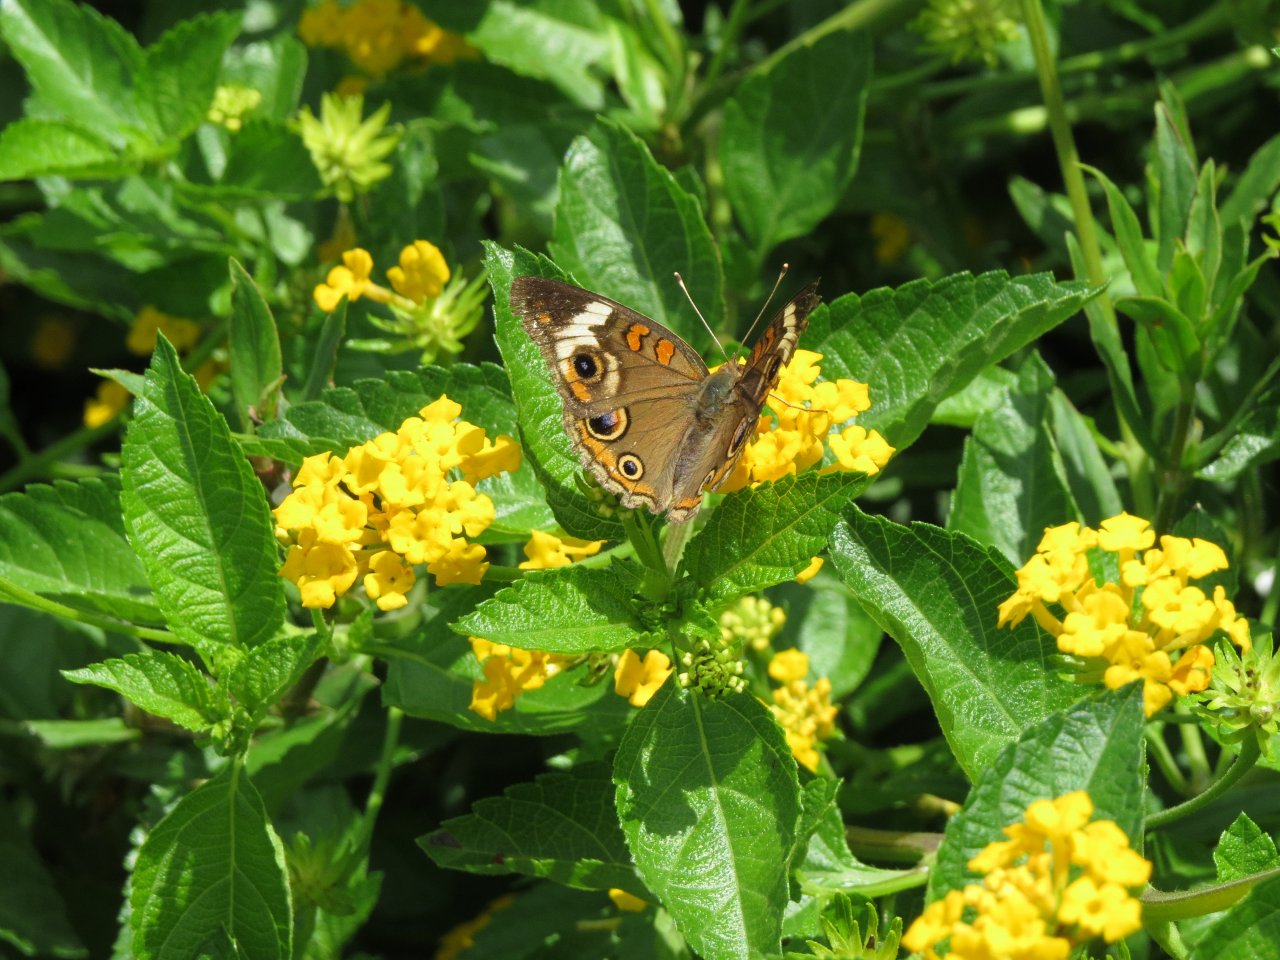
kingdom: Animalia
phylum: Arthropoda
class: Insecta
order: Lepidoptera
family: Nymphalidae
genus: Junonia
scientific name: Junonia coenia
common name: Common Buckeye
